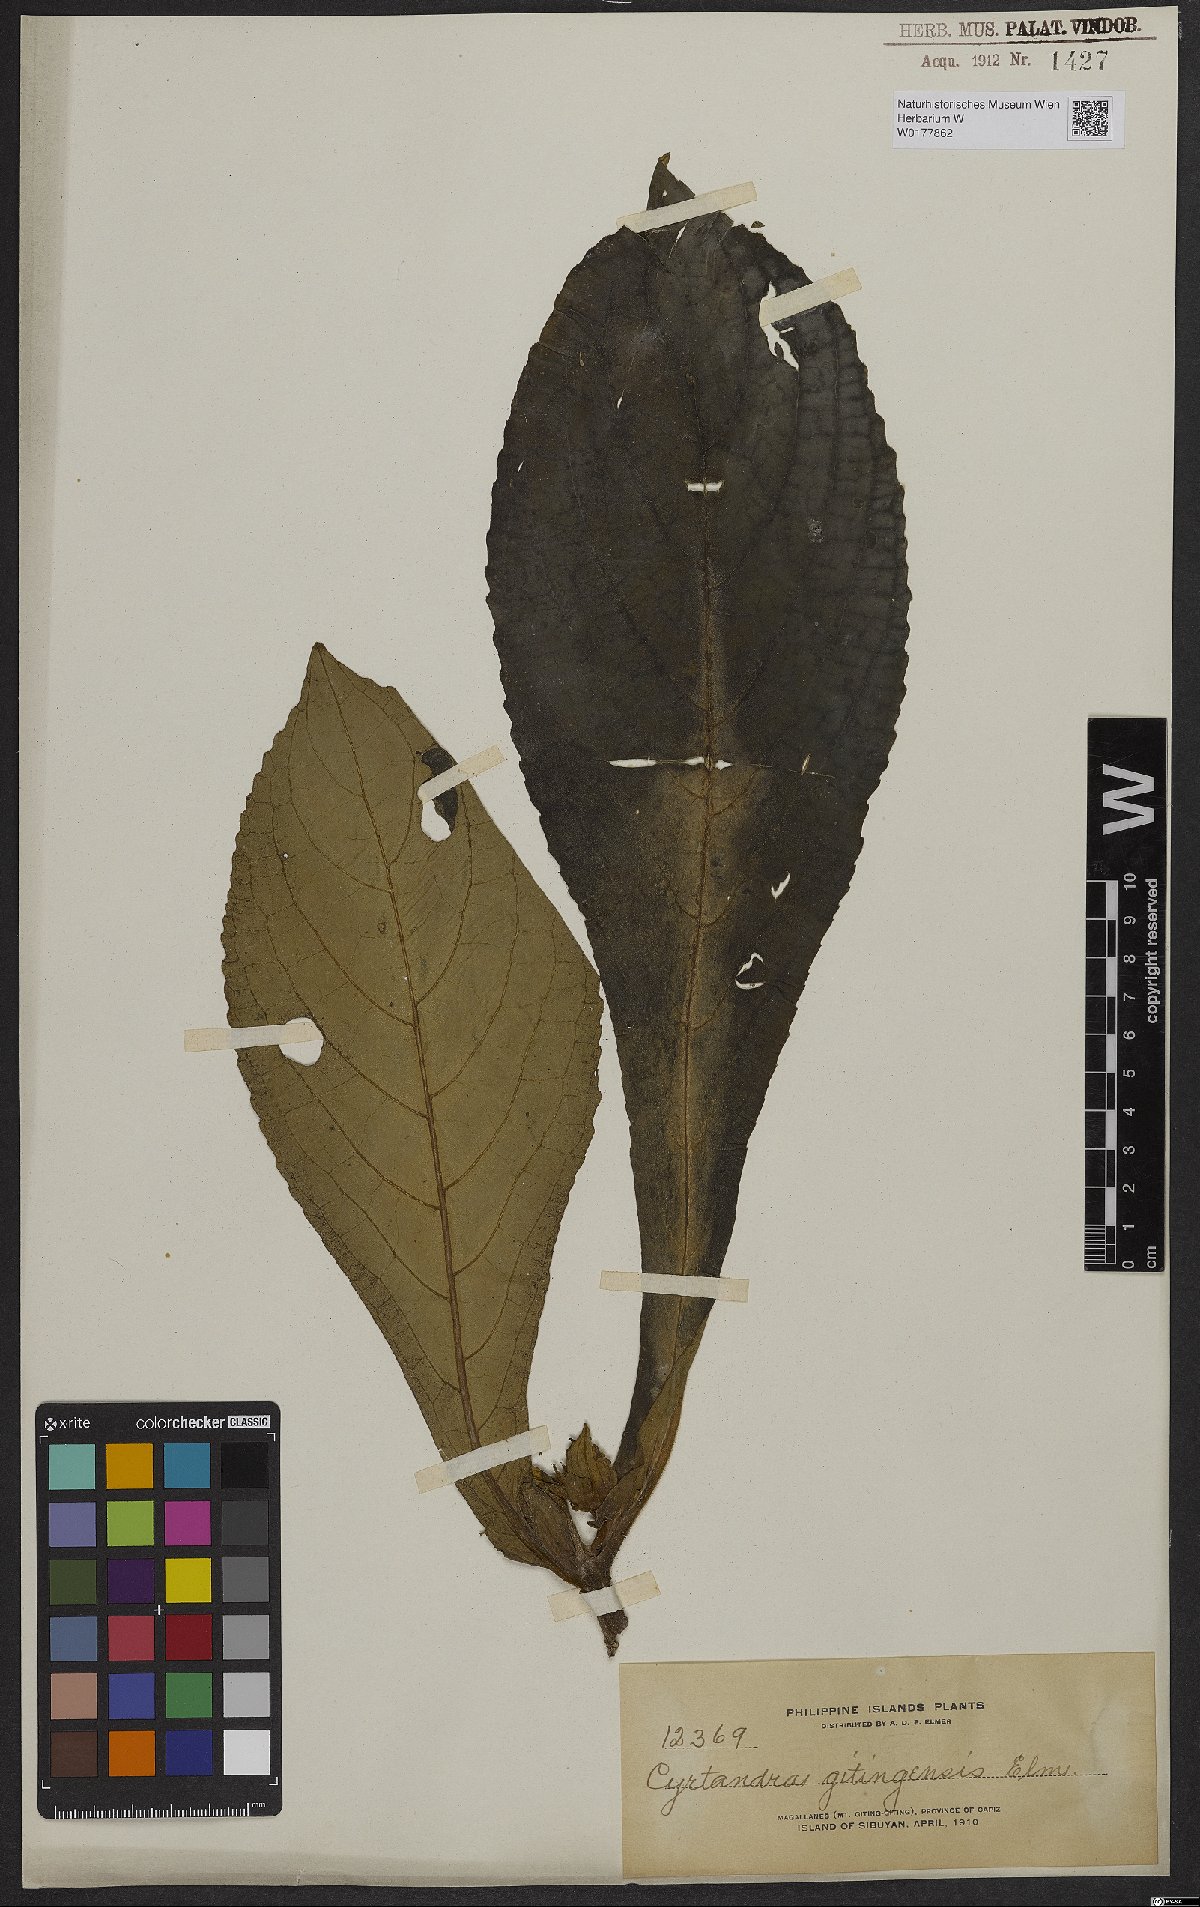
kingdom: Plantae
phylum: Tracheophyta
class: Magnoliopsida
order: Lamiales
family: Gesneriaceae
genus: Cyrtandra
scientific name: Cyrtandra gitingensis
